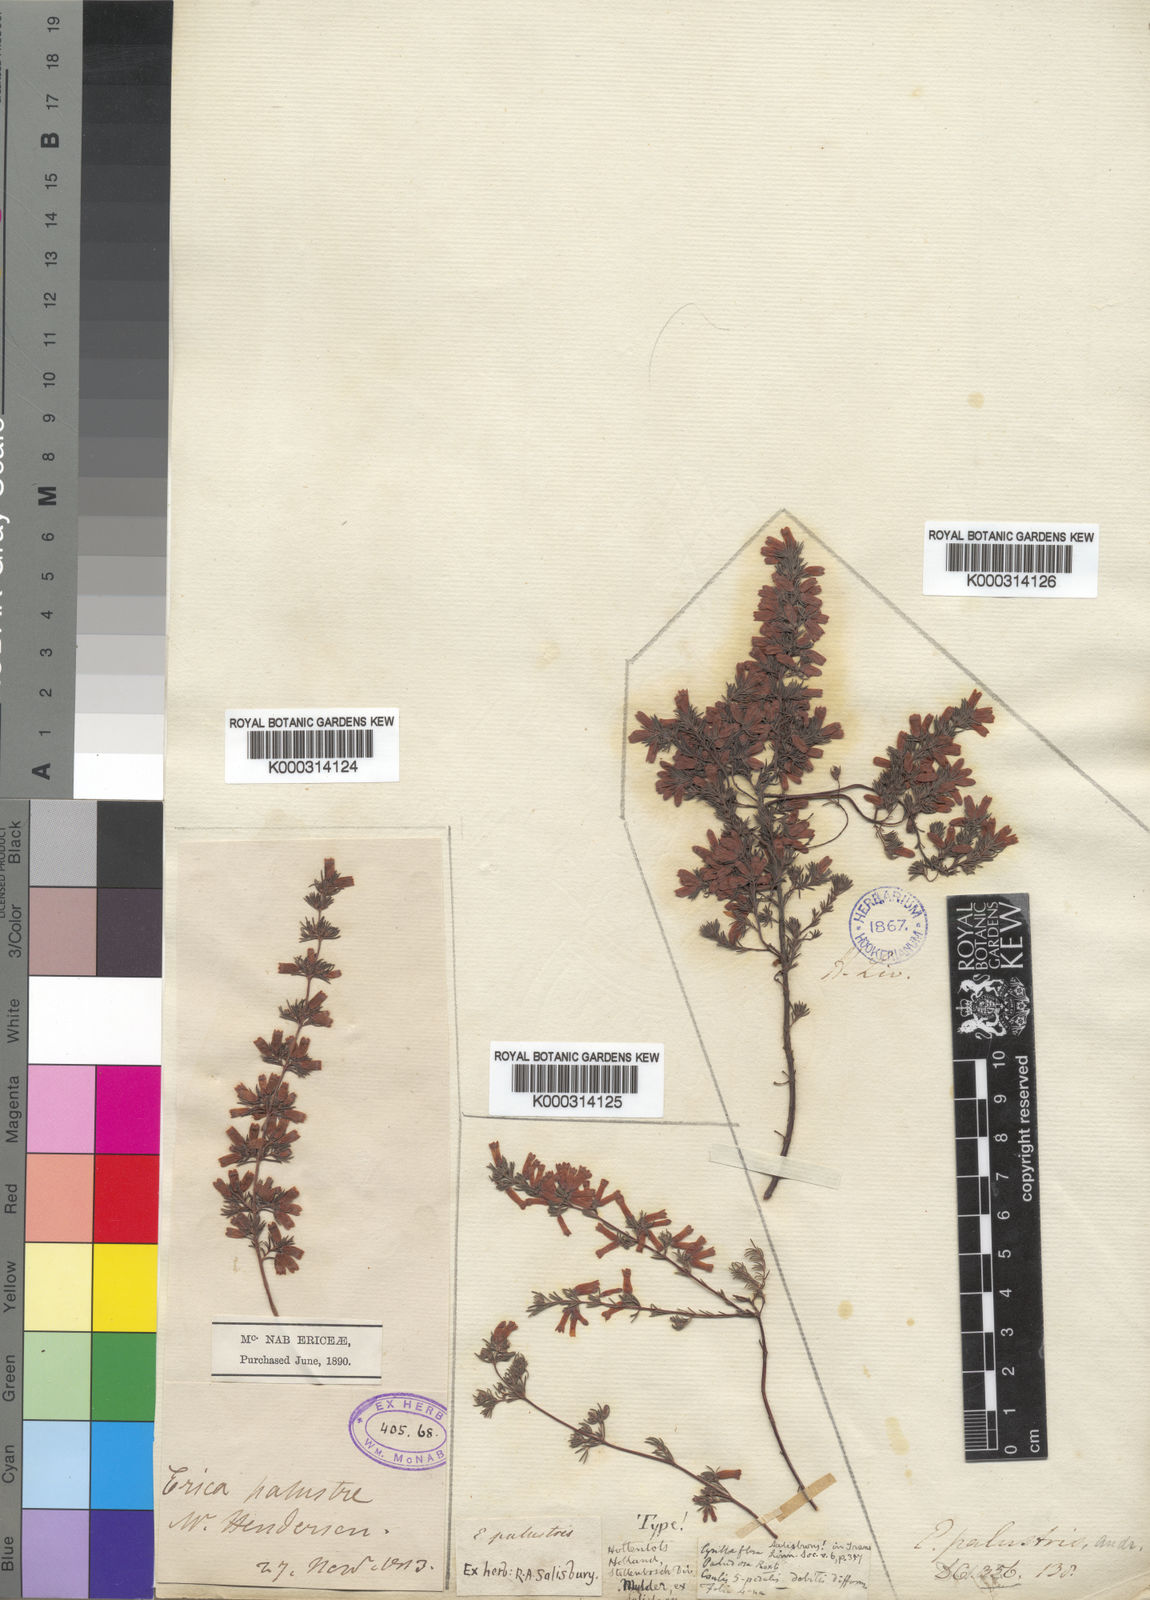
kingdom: Plantae
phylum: Tracheophyta
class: Magnoliopsida
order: Ericales
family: Ericaceae
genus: Erica
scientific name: Erica cyrilliflora
